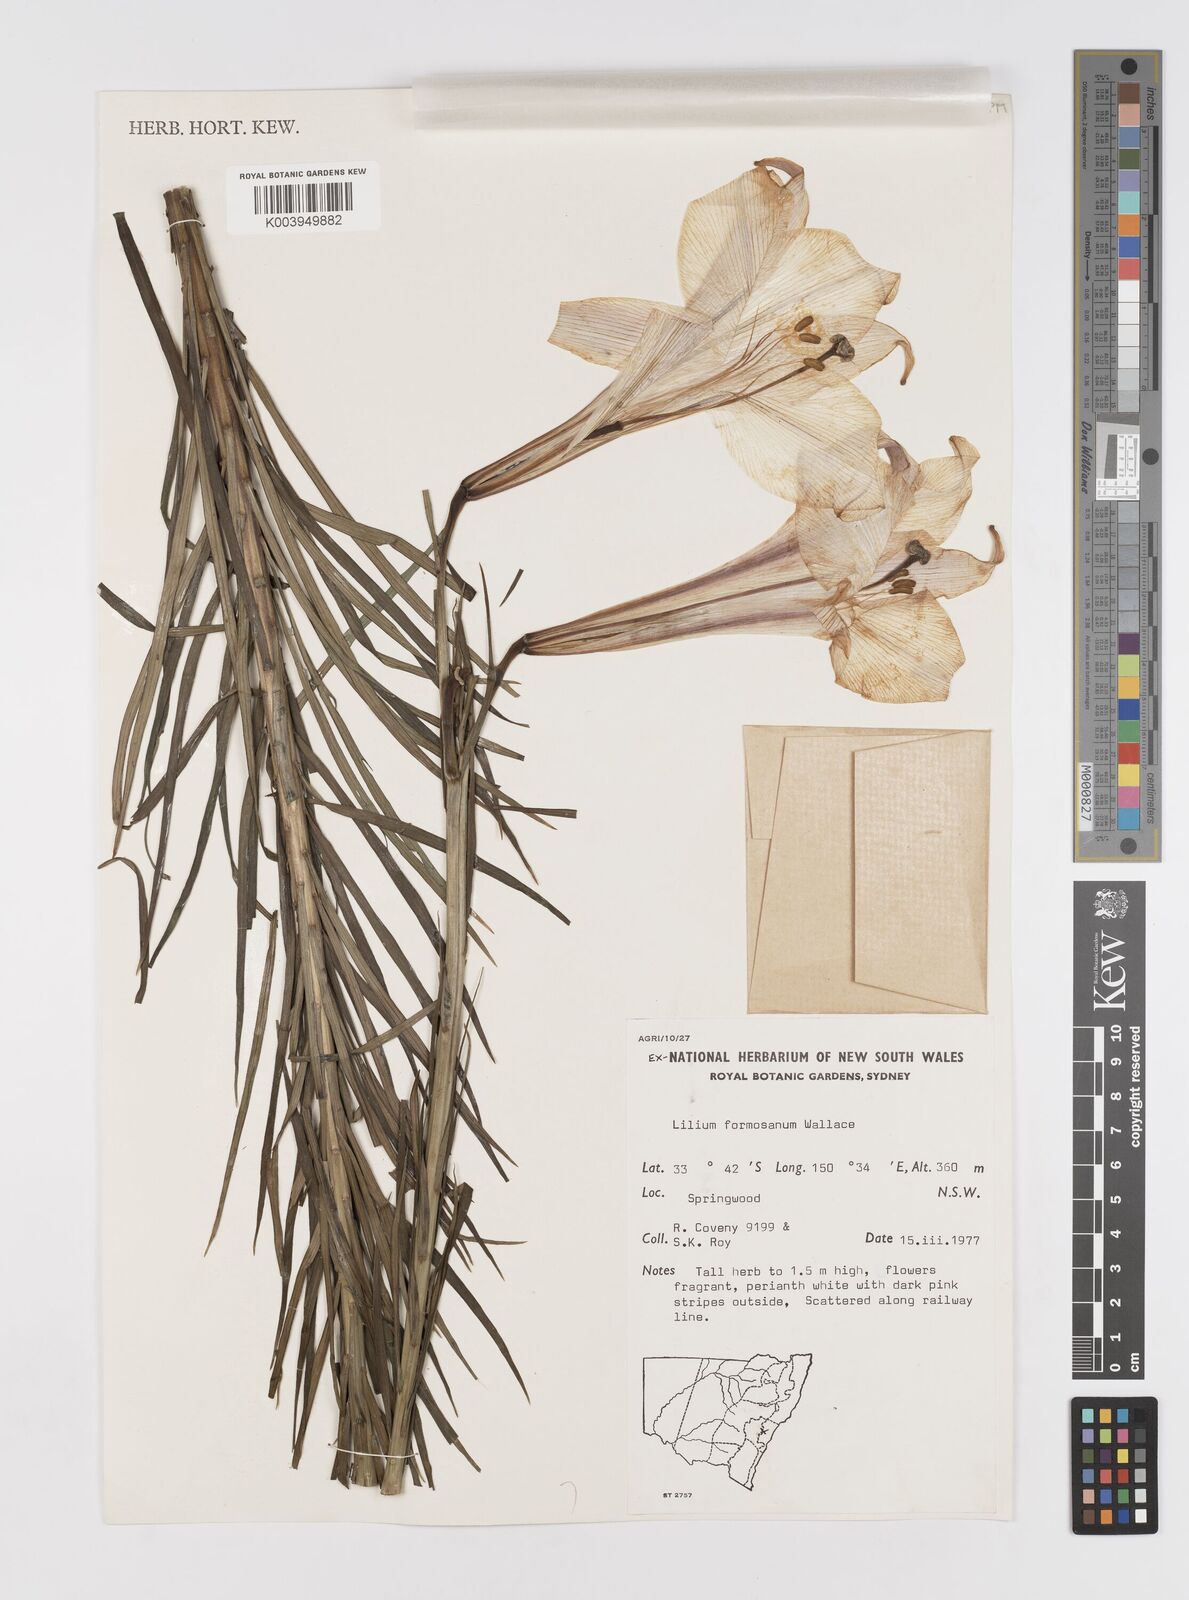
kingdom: Plantae
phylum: Tracheophyta
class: Liliopsida
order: Liliales
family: Liliaceae
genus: Lilium
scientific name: Lilium formosanum
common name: Formosa lily
